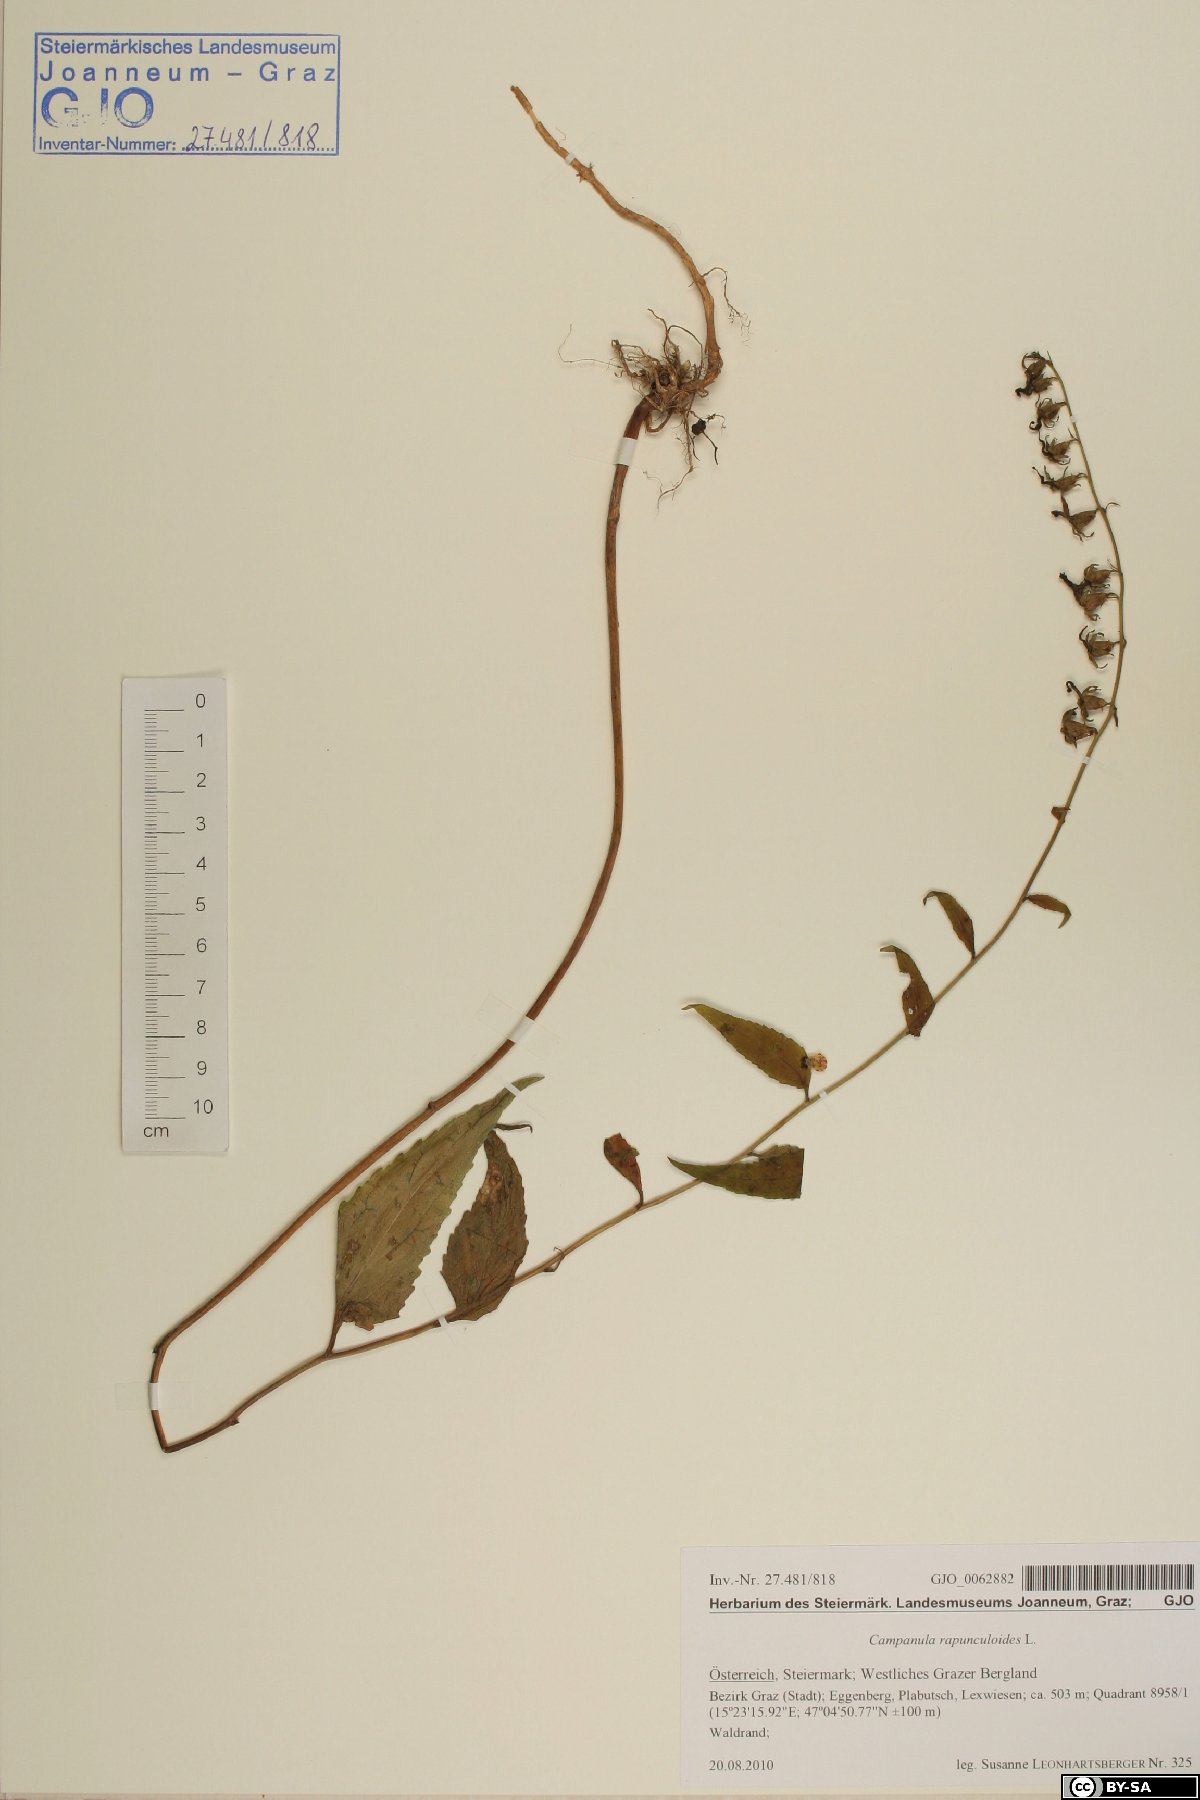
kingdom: Plantae
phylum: Tracheophyta
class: Magnoliopsida
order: Asterales
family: Campanulaceae
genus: Campanula
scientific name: Campanula rapunculoides
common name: Creeping bellflower
